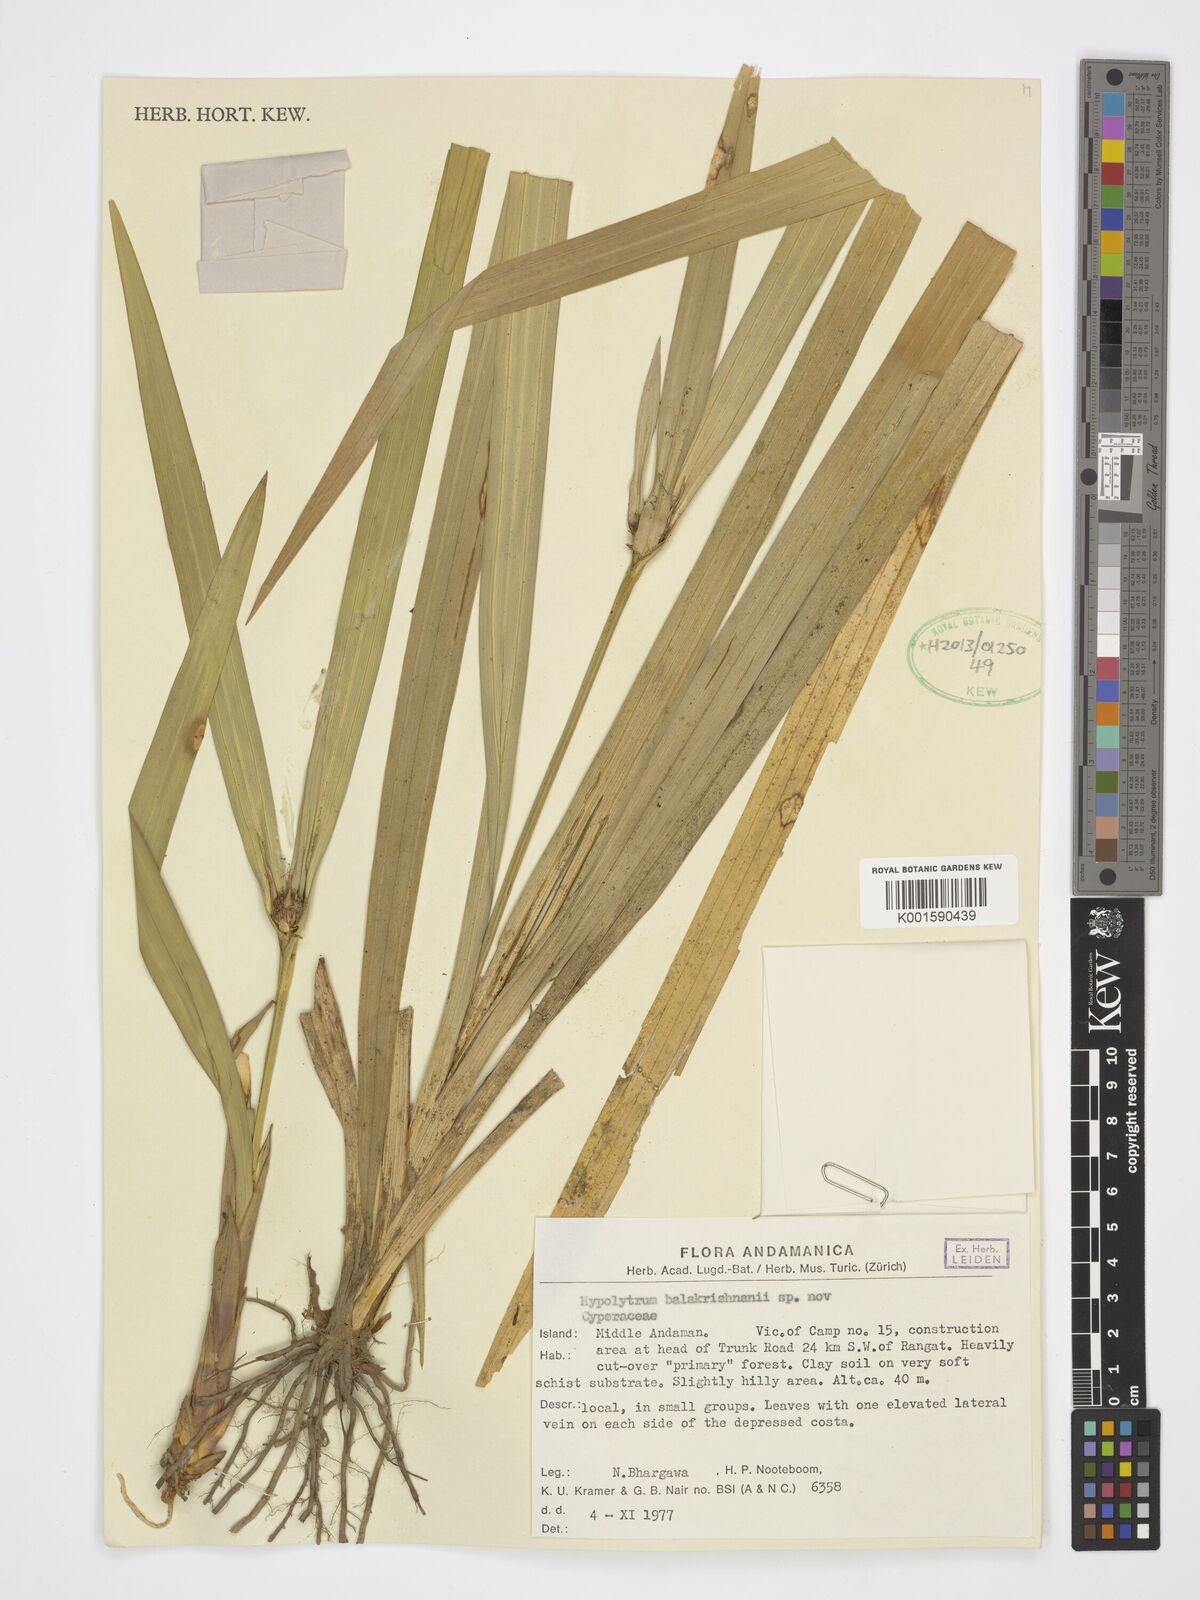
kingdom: Plantae
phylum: Tracheophyta
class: Liliopsida
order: Poales
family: Cyperaceae
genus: Hypolytrum
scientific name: Hypolytrum balakrishnanii
